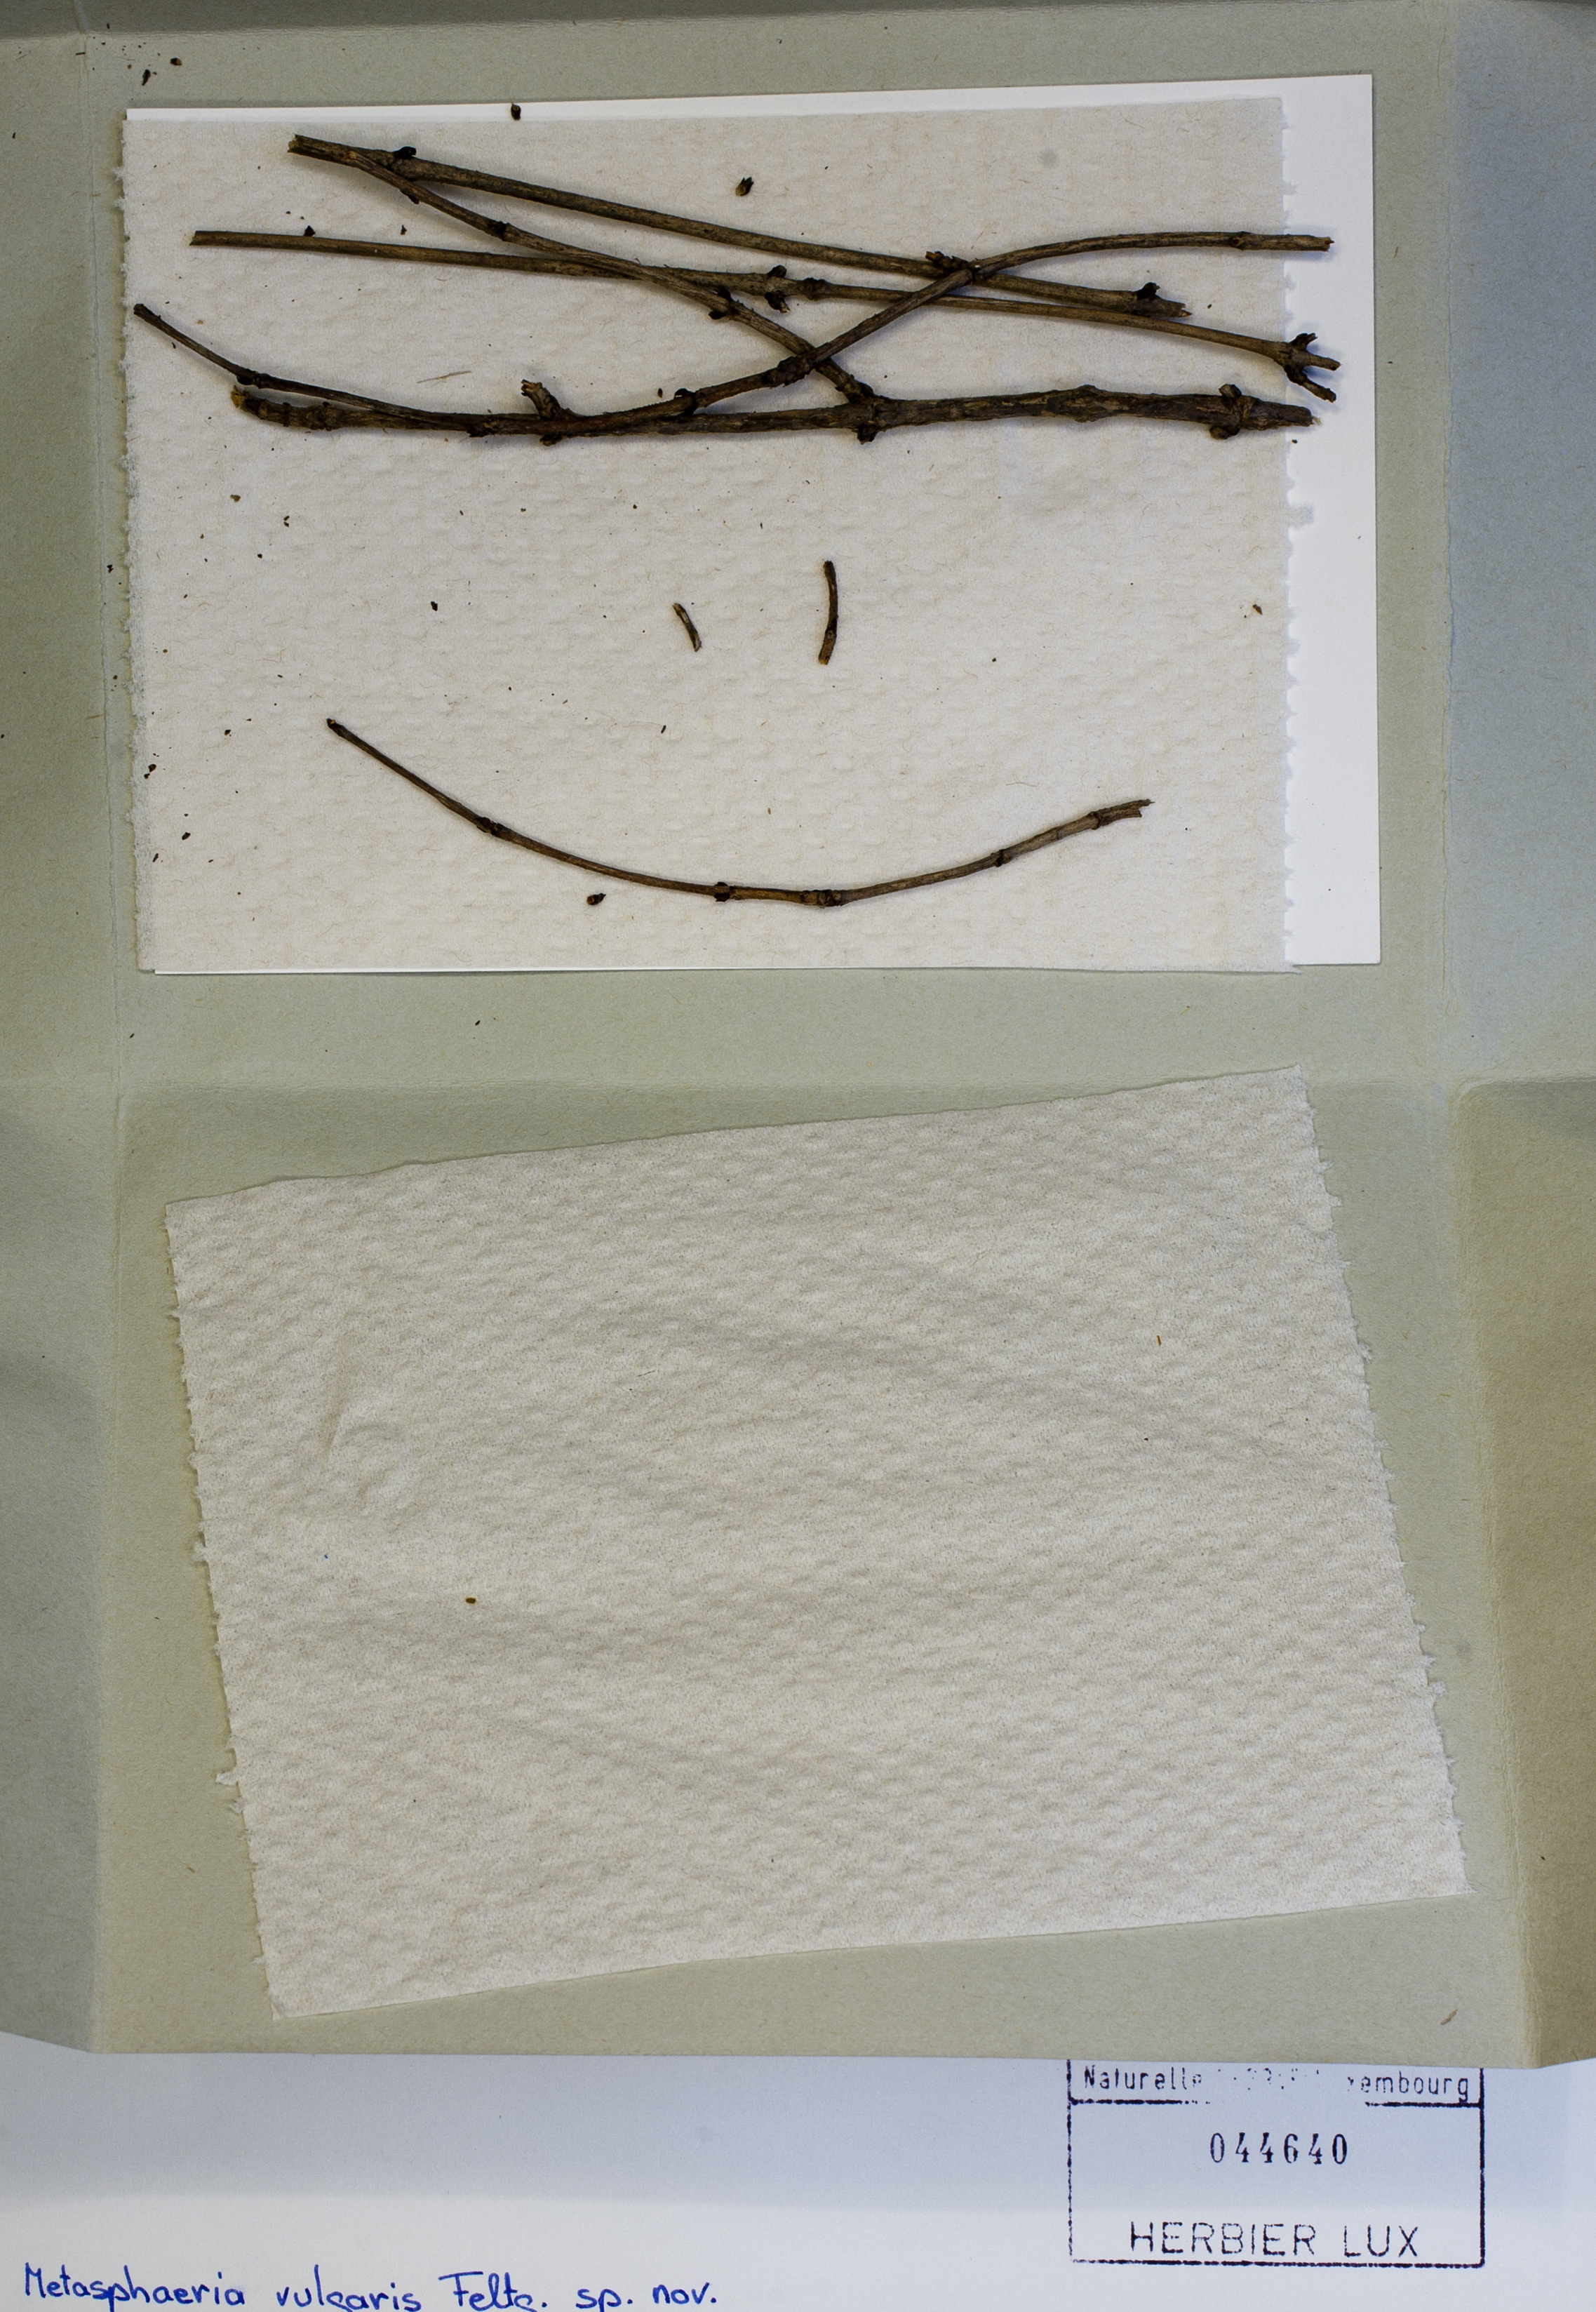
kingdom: Fungi
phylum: Ascomycota
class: Dothideomycetes
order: Dothideales
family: Saccotheciaceae
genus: Metasphaeria
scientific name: Metasphaeria vulgaris
